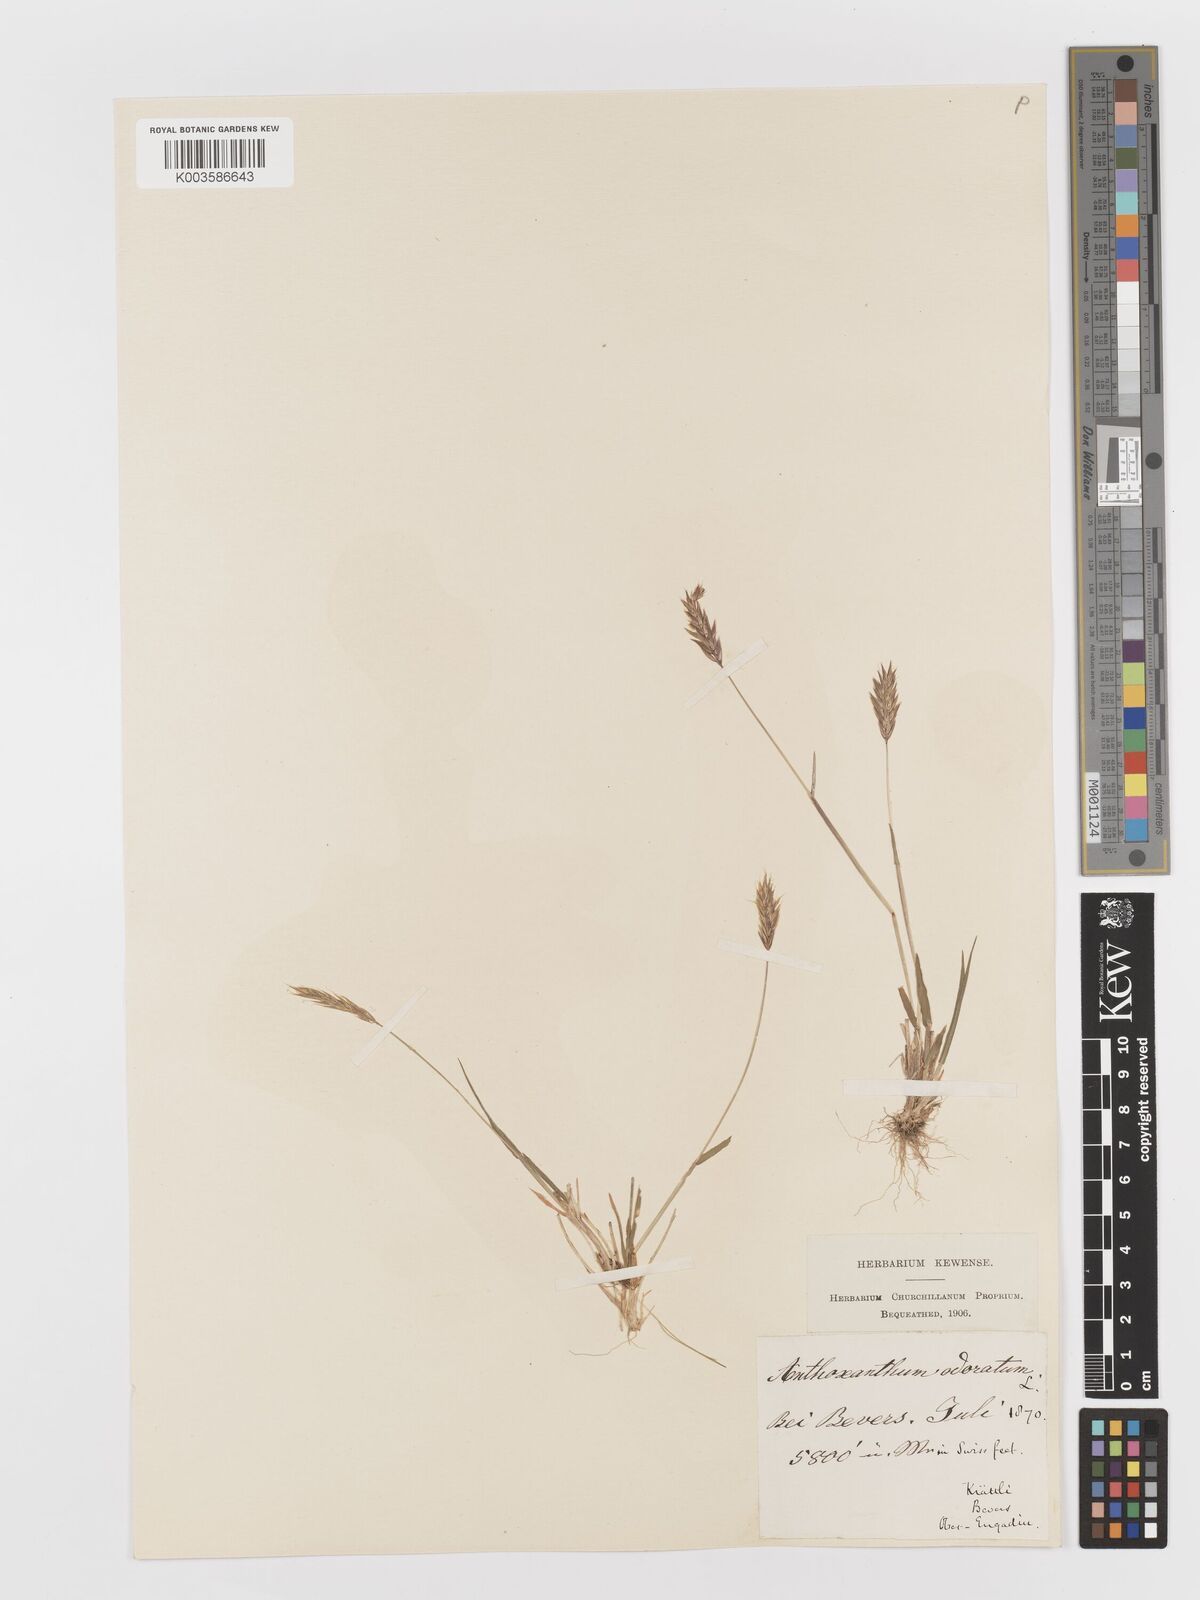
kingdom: Plantae
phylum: Tracheophyta
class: Liliopsida
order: Poales
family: Poaceae
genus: Anthoxanthum
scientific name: Anthoxanthum odoratum
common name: Sweet vernalgrass
